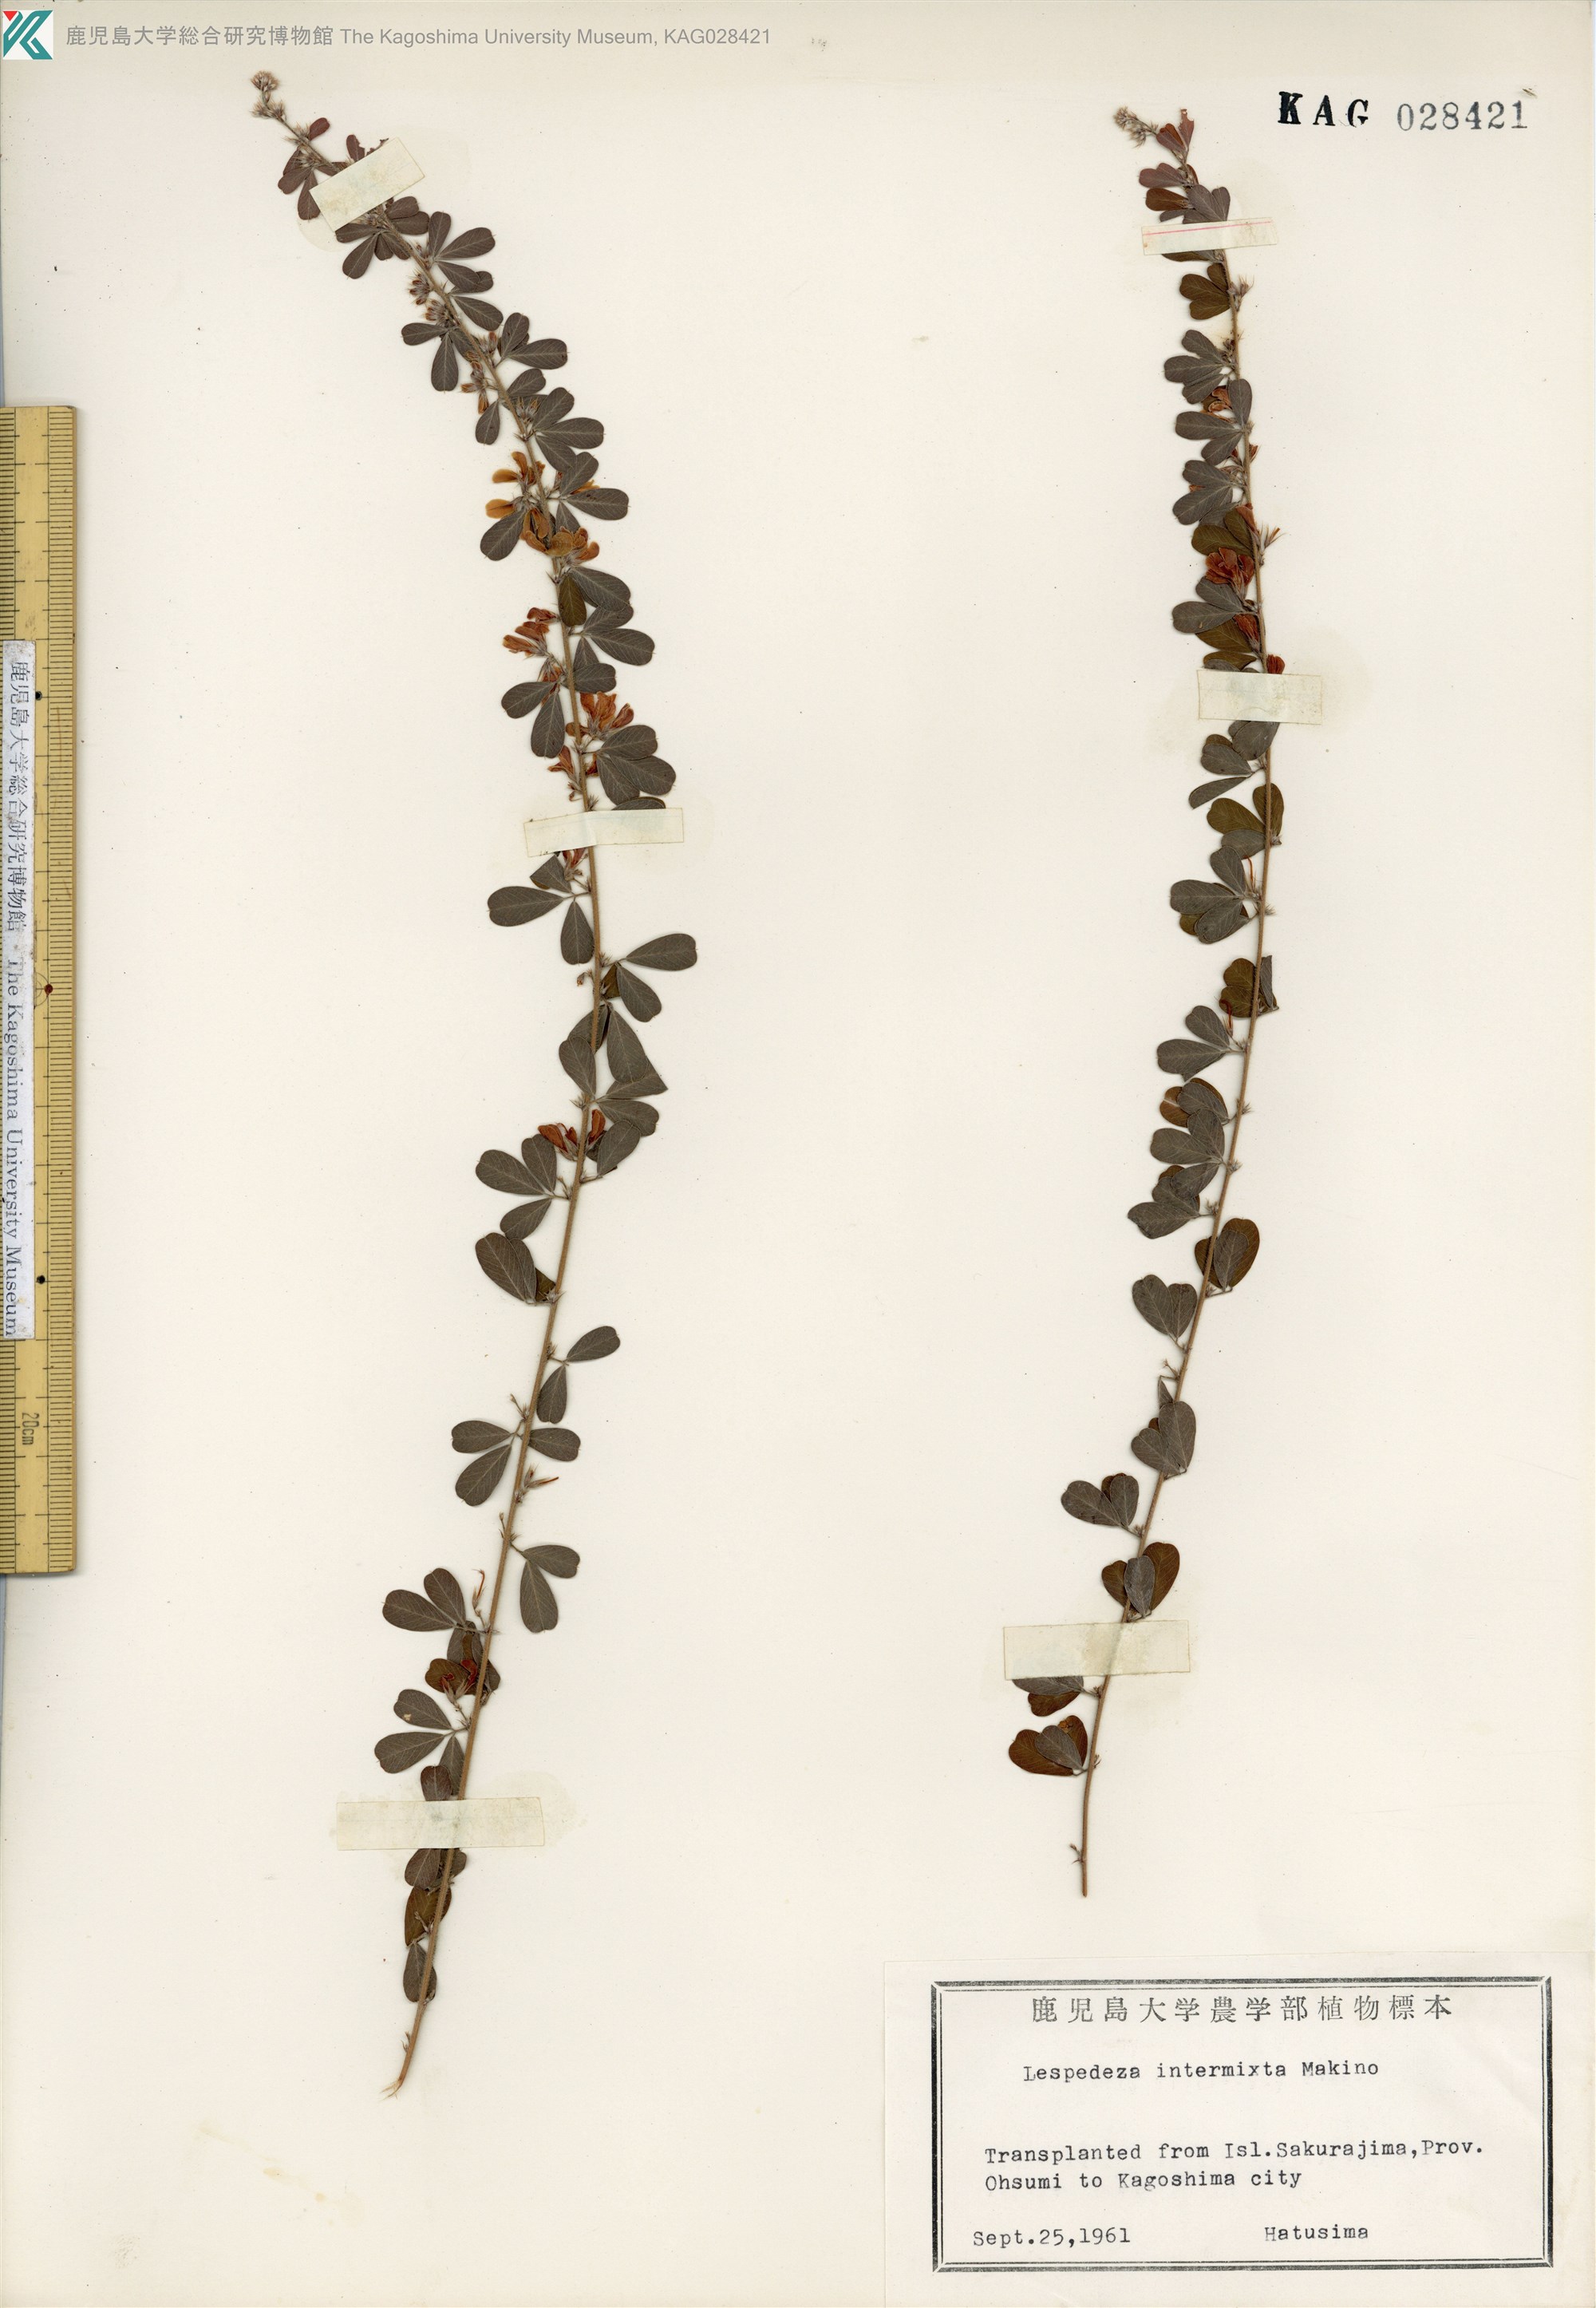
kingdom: Plantae
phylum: Tracheophyta
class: Magnoliopsida
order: Fabales
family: Fabaceae
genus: Lespedeza
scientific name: Lespedeza intermixta
